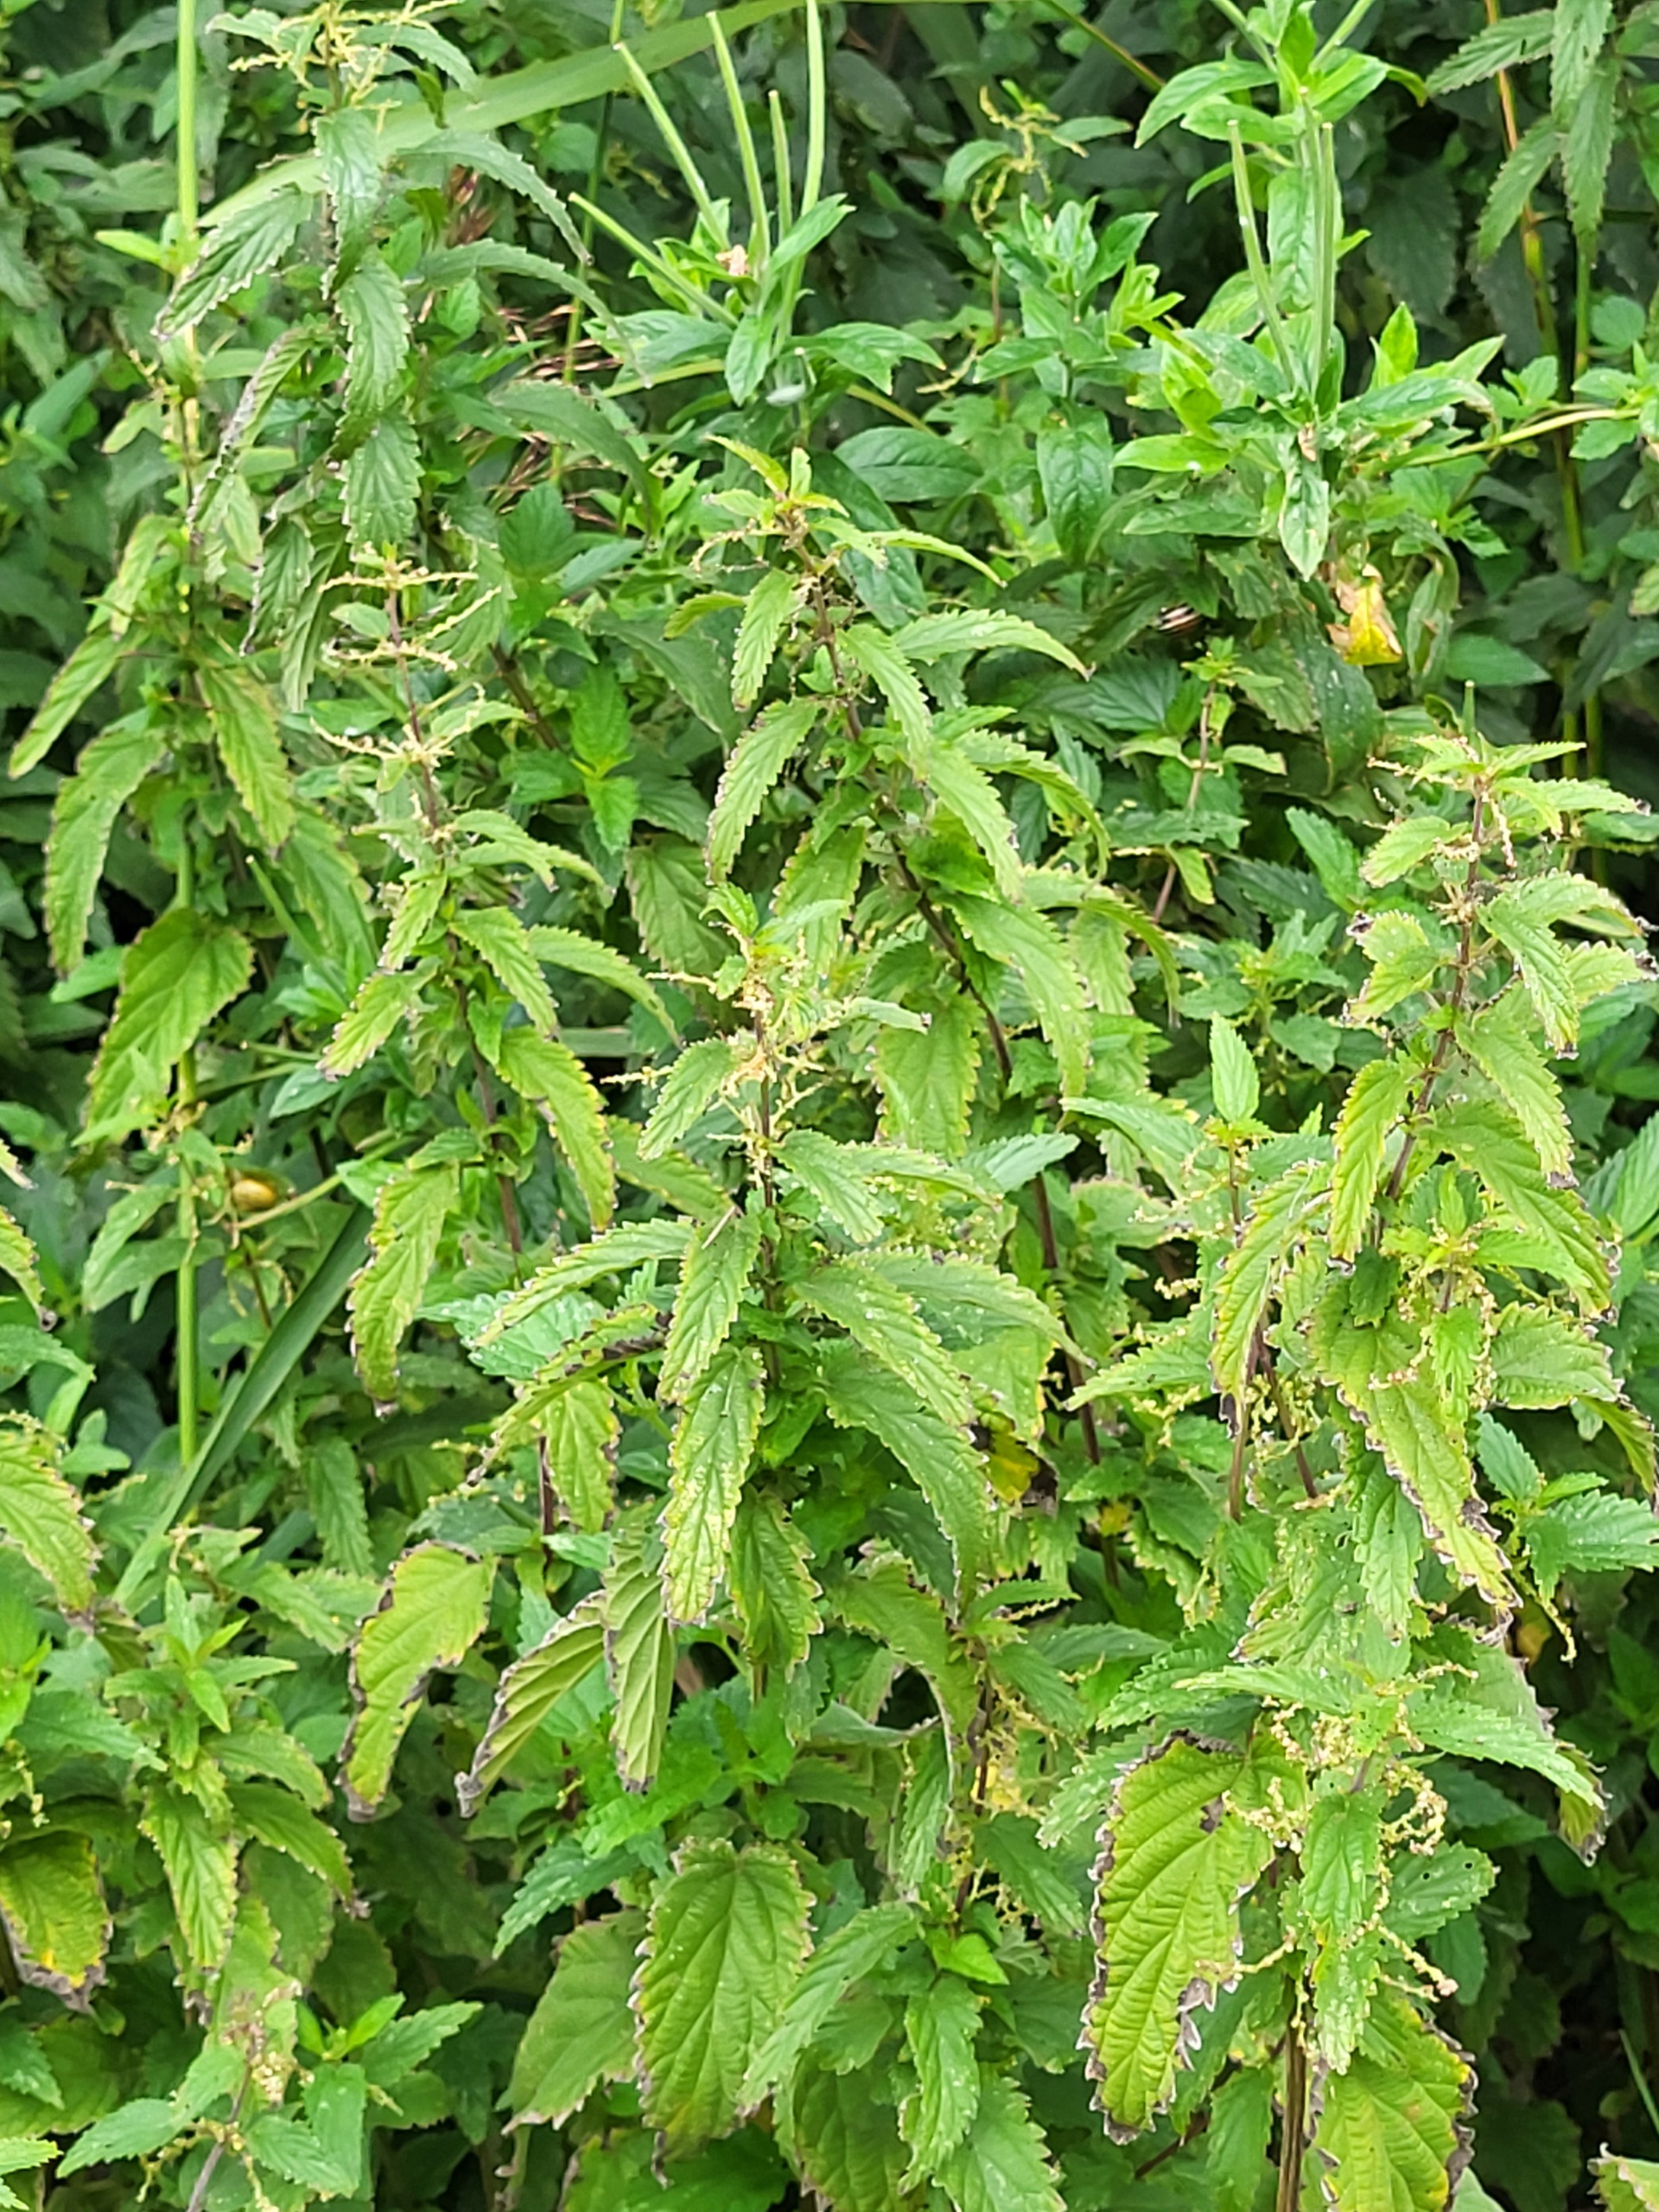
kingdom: Plantae
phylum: Tracheophyta
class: Magnoliopsida
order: Rosales
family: Urticaceae
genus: Urtica
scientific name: Urtica dioica
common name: Stor nælde
